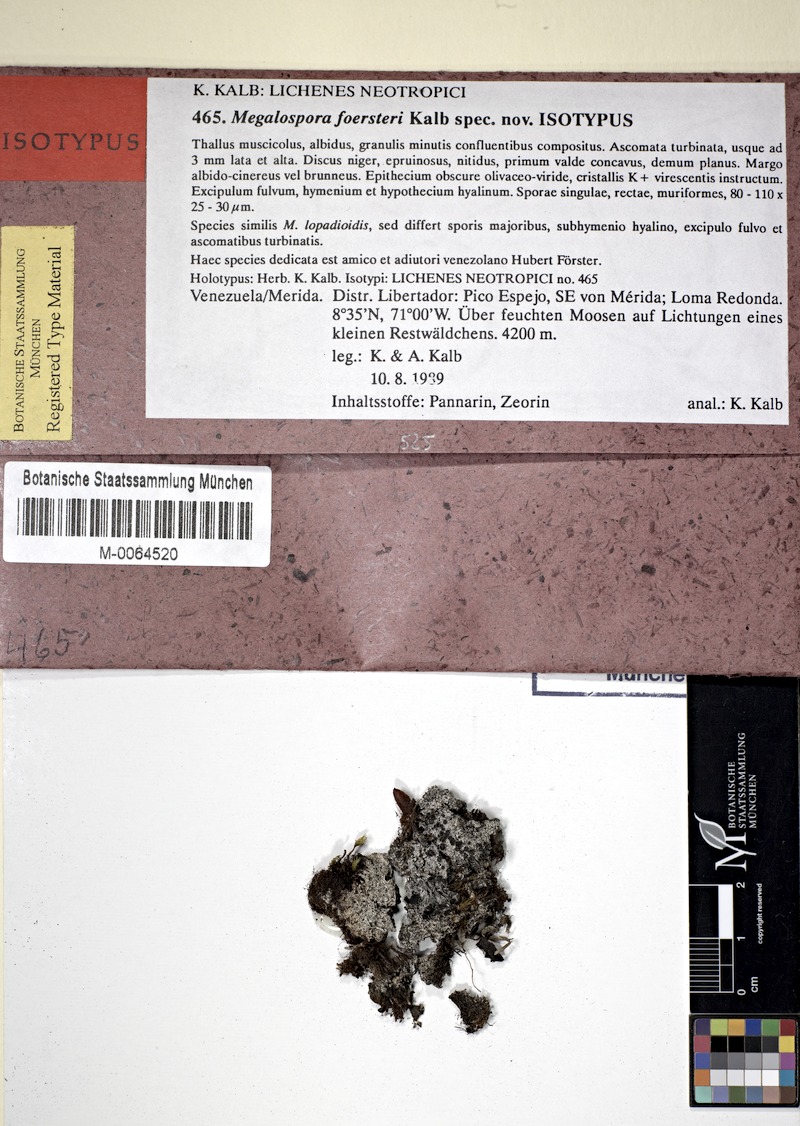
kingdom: Fungi
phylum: Ascomycota
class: Lecanoromycetes
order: Teloschistales
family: Megalosporaceae
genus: Megalospora
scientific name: Megalospora foersteri
